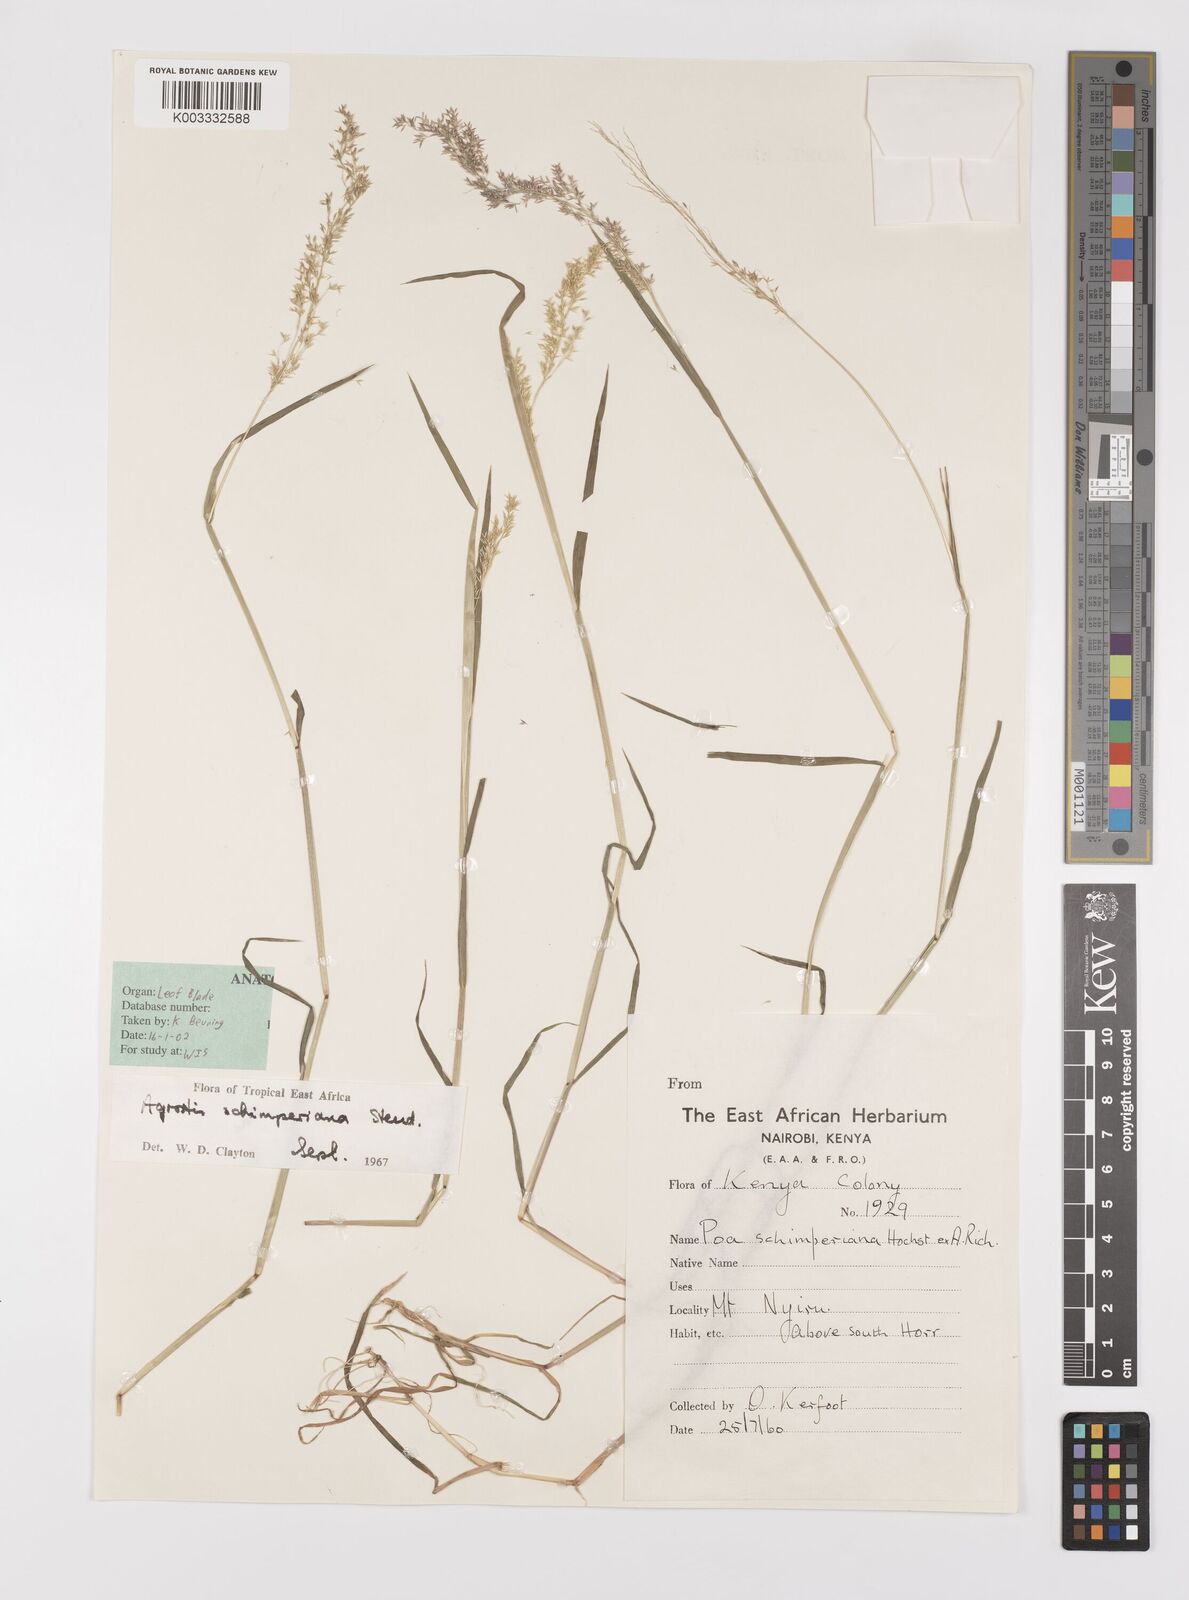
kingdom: Plantae
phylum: Tracheophyta
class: Liliopsida
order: Poales
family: Poaceae
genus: Polypogon
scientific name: Polypogon schimperianus
